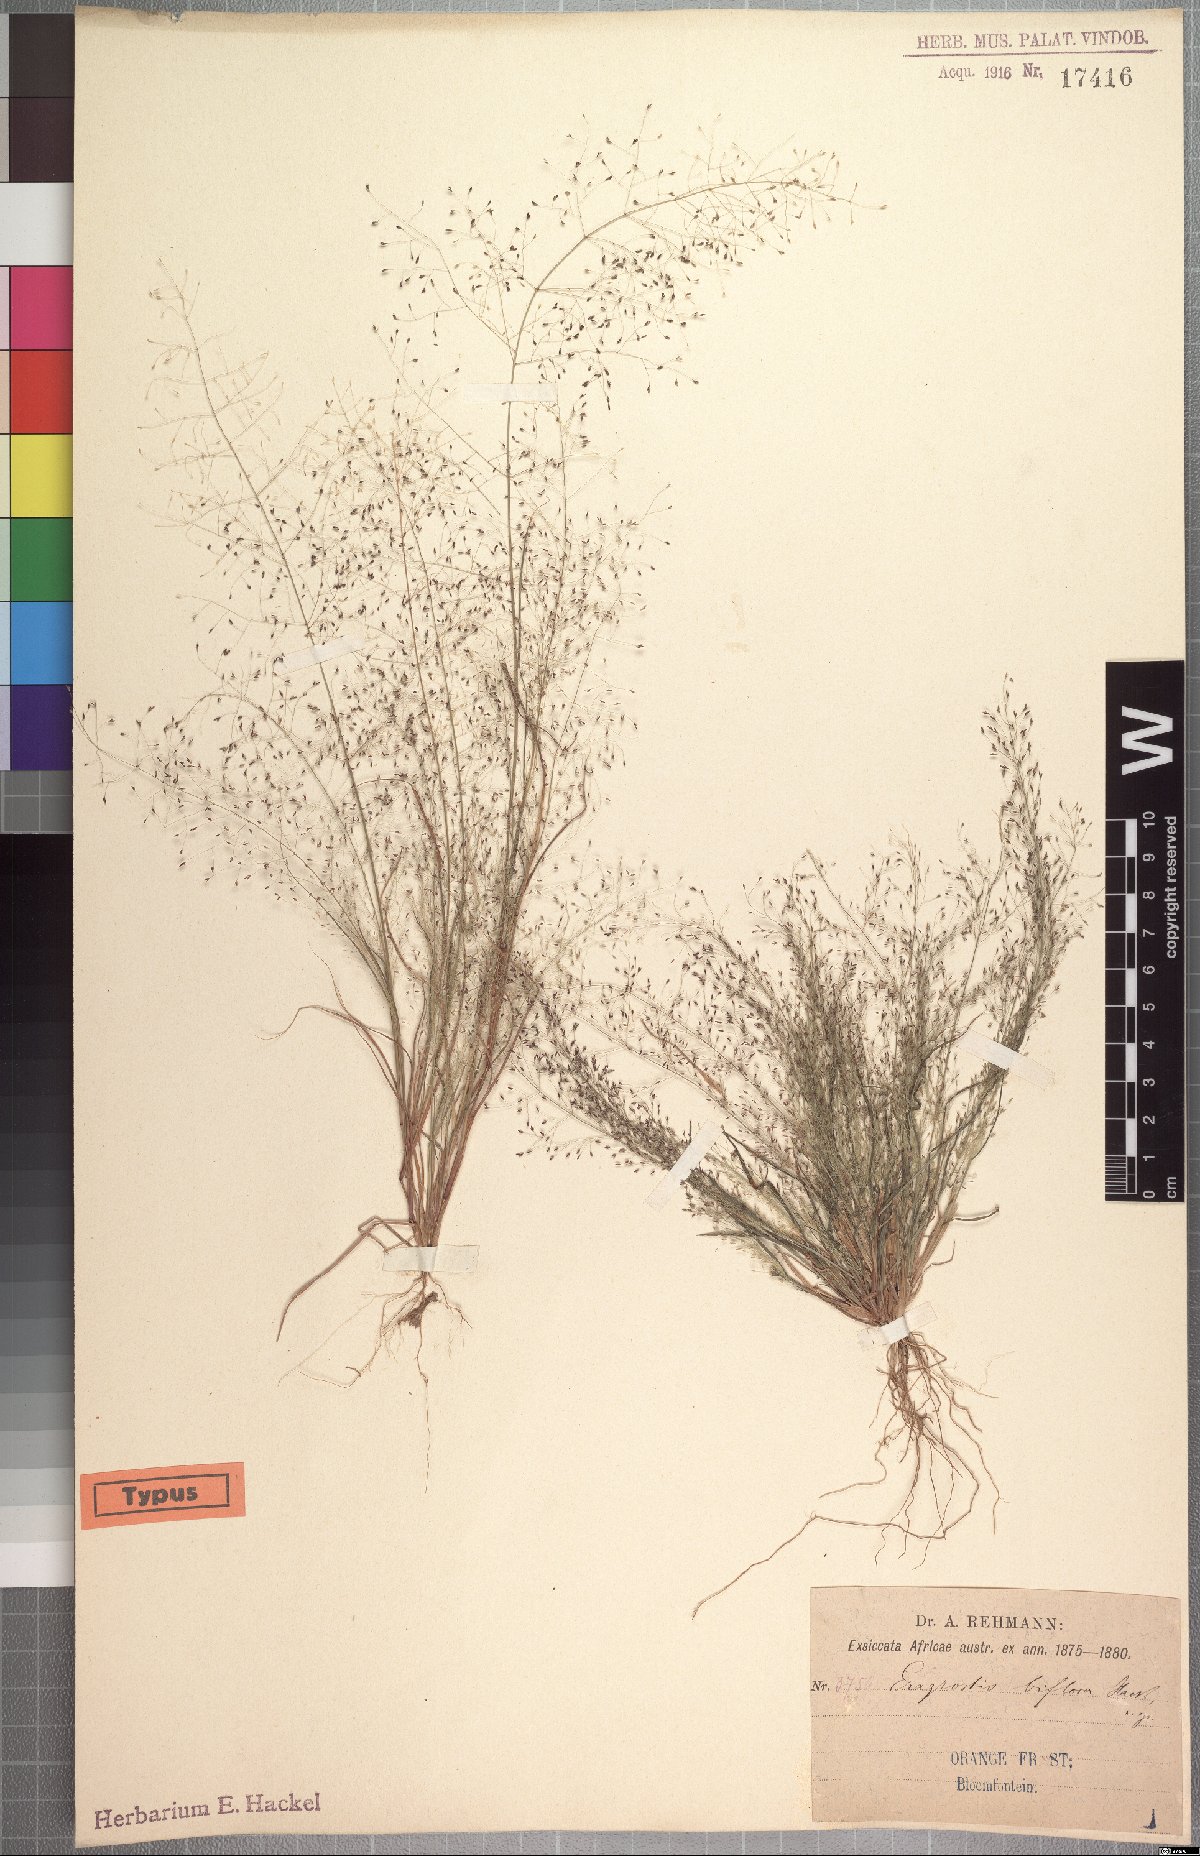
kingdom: Plantae
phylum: Tracheophyta
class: Liliopsida
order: Poales
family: Poaceae
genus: Eragrostis
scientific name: Eragrostis biflora
